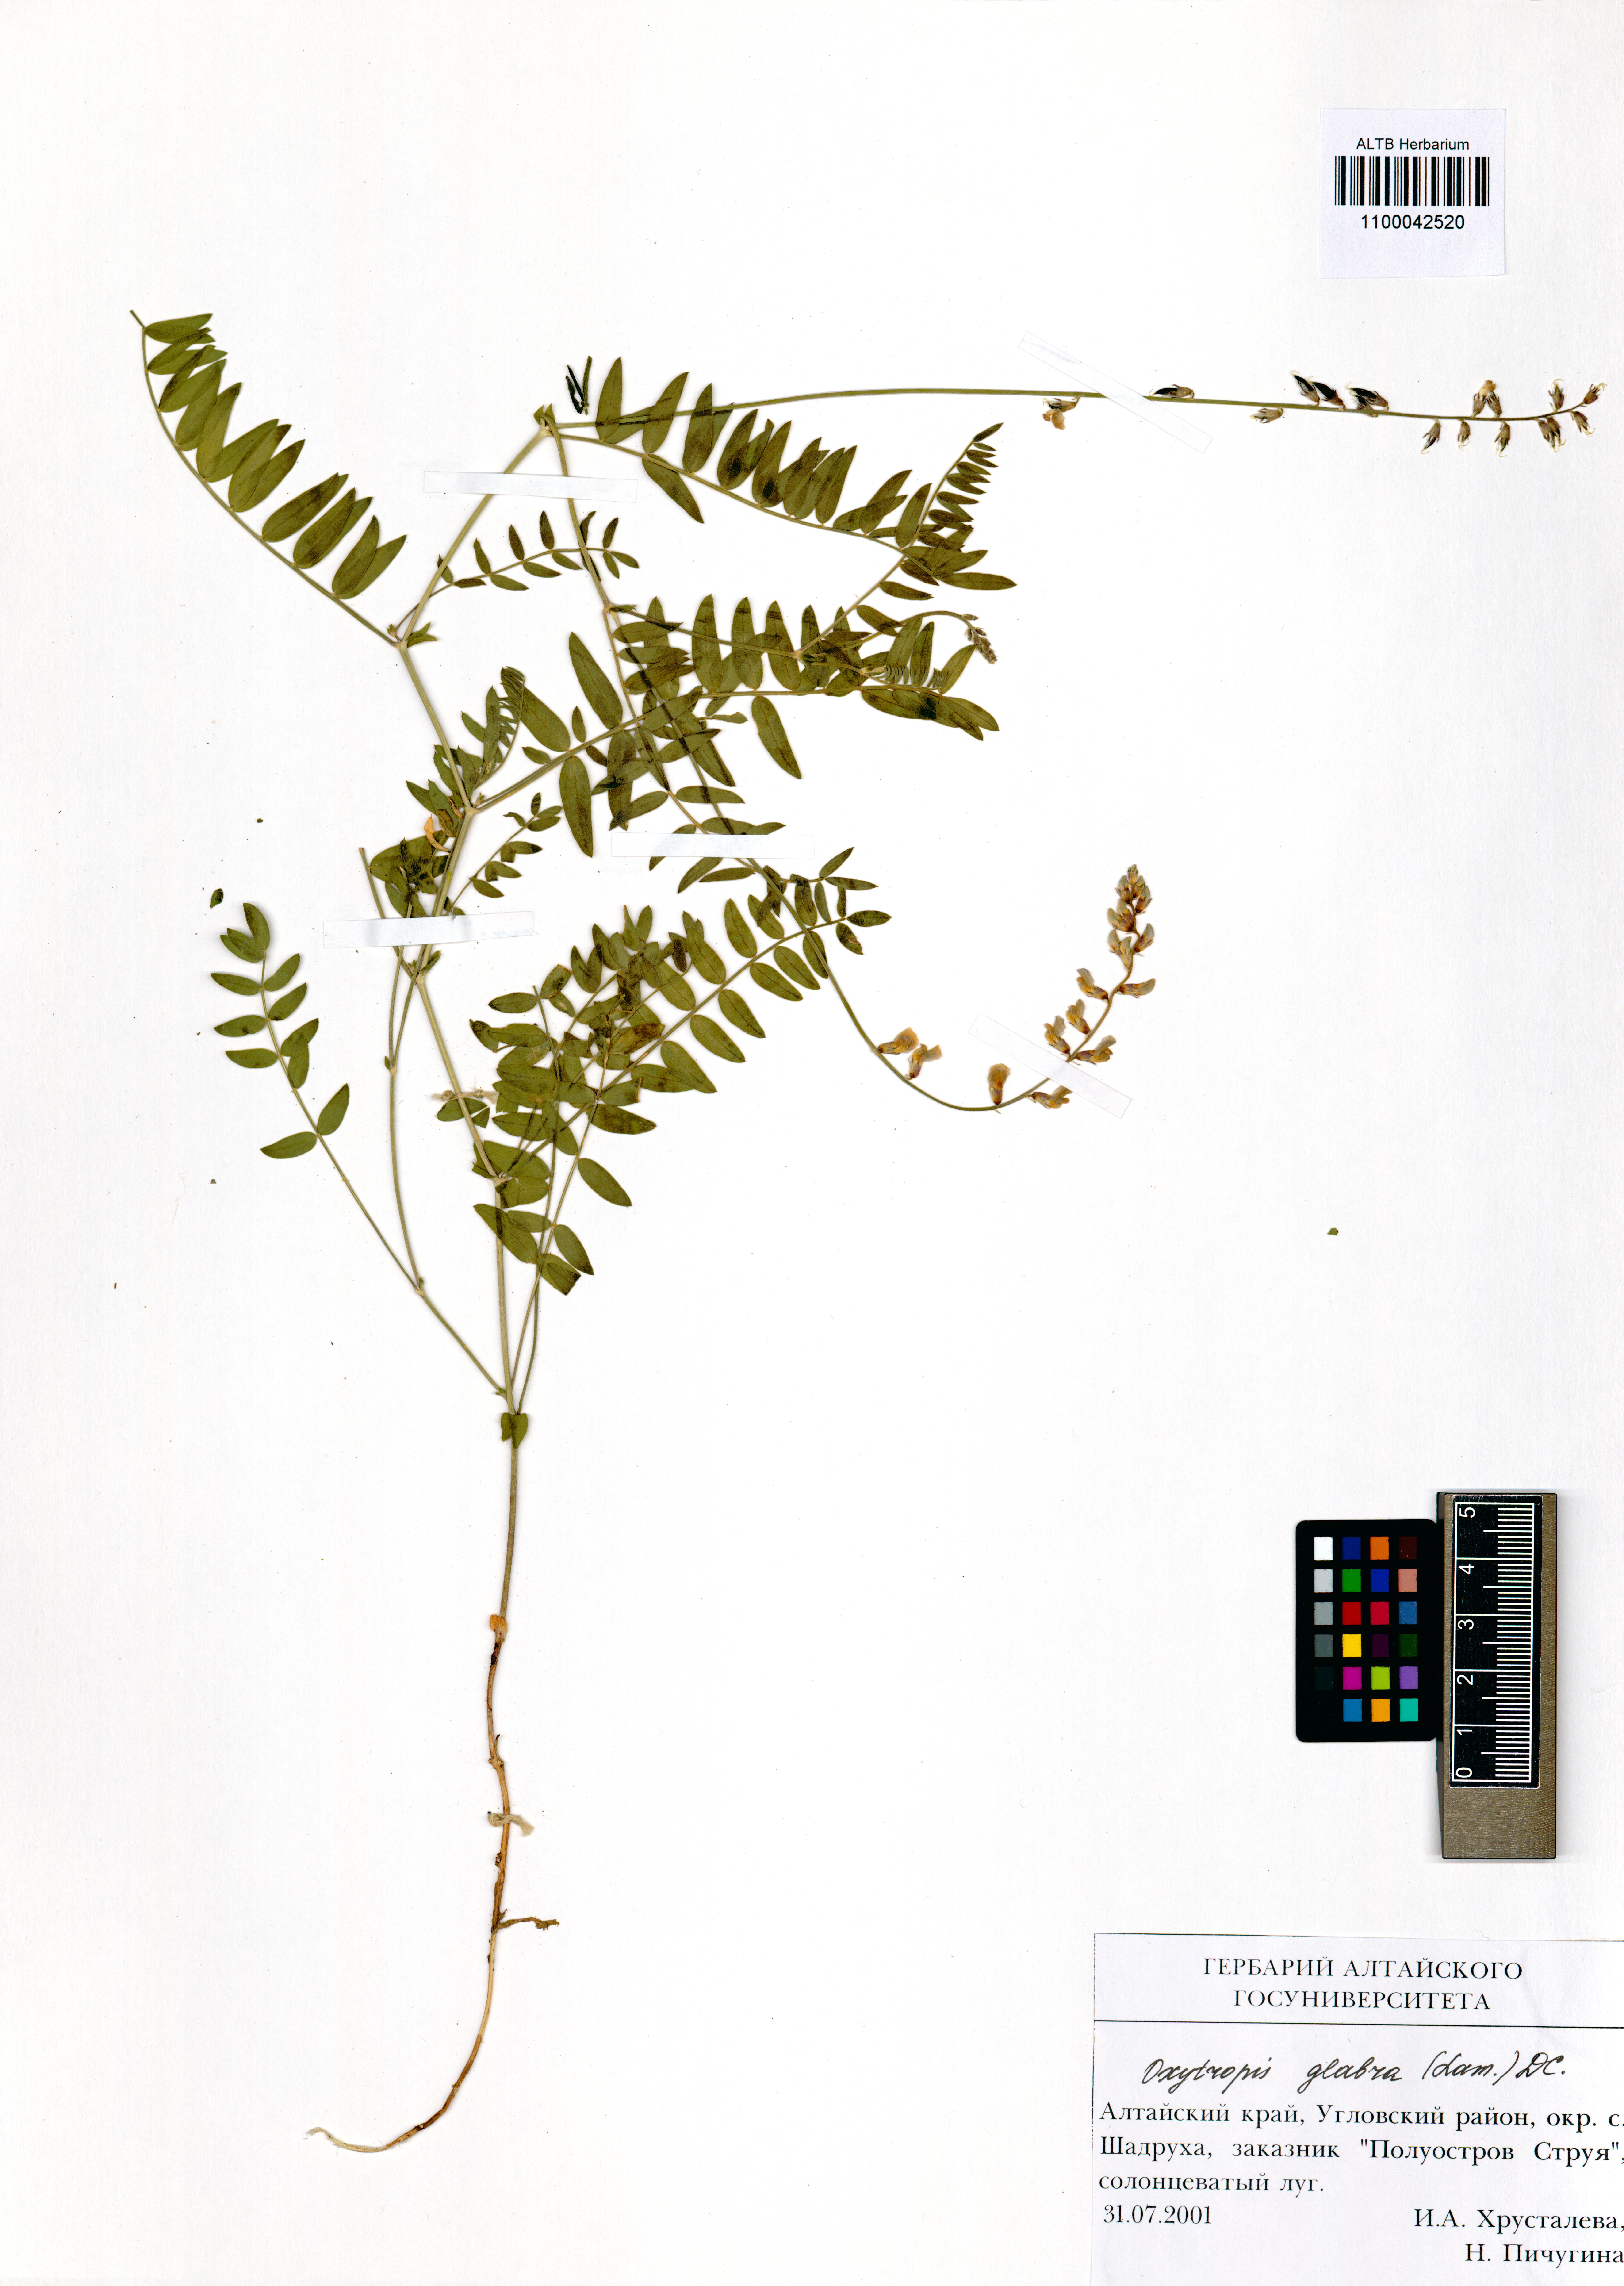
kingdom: Plantae
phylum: Tracheophyta
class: Magnoliopsida
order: Fabales
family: Fabaceae
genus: Oxytropis
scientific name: Oxytropis glabra
